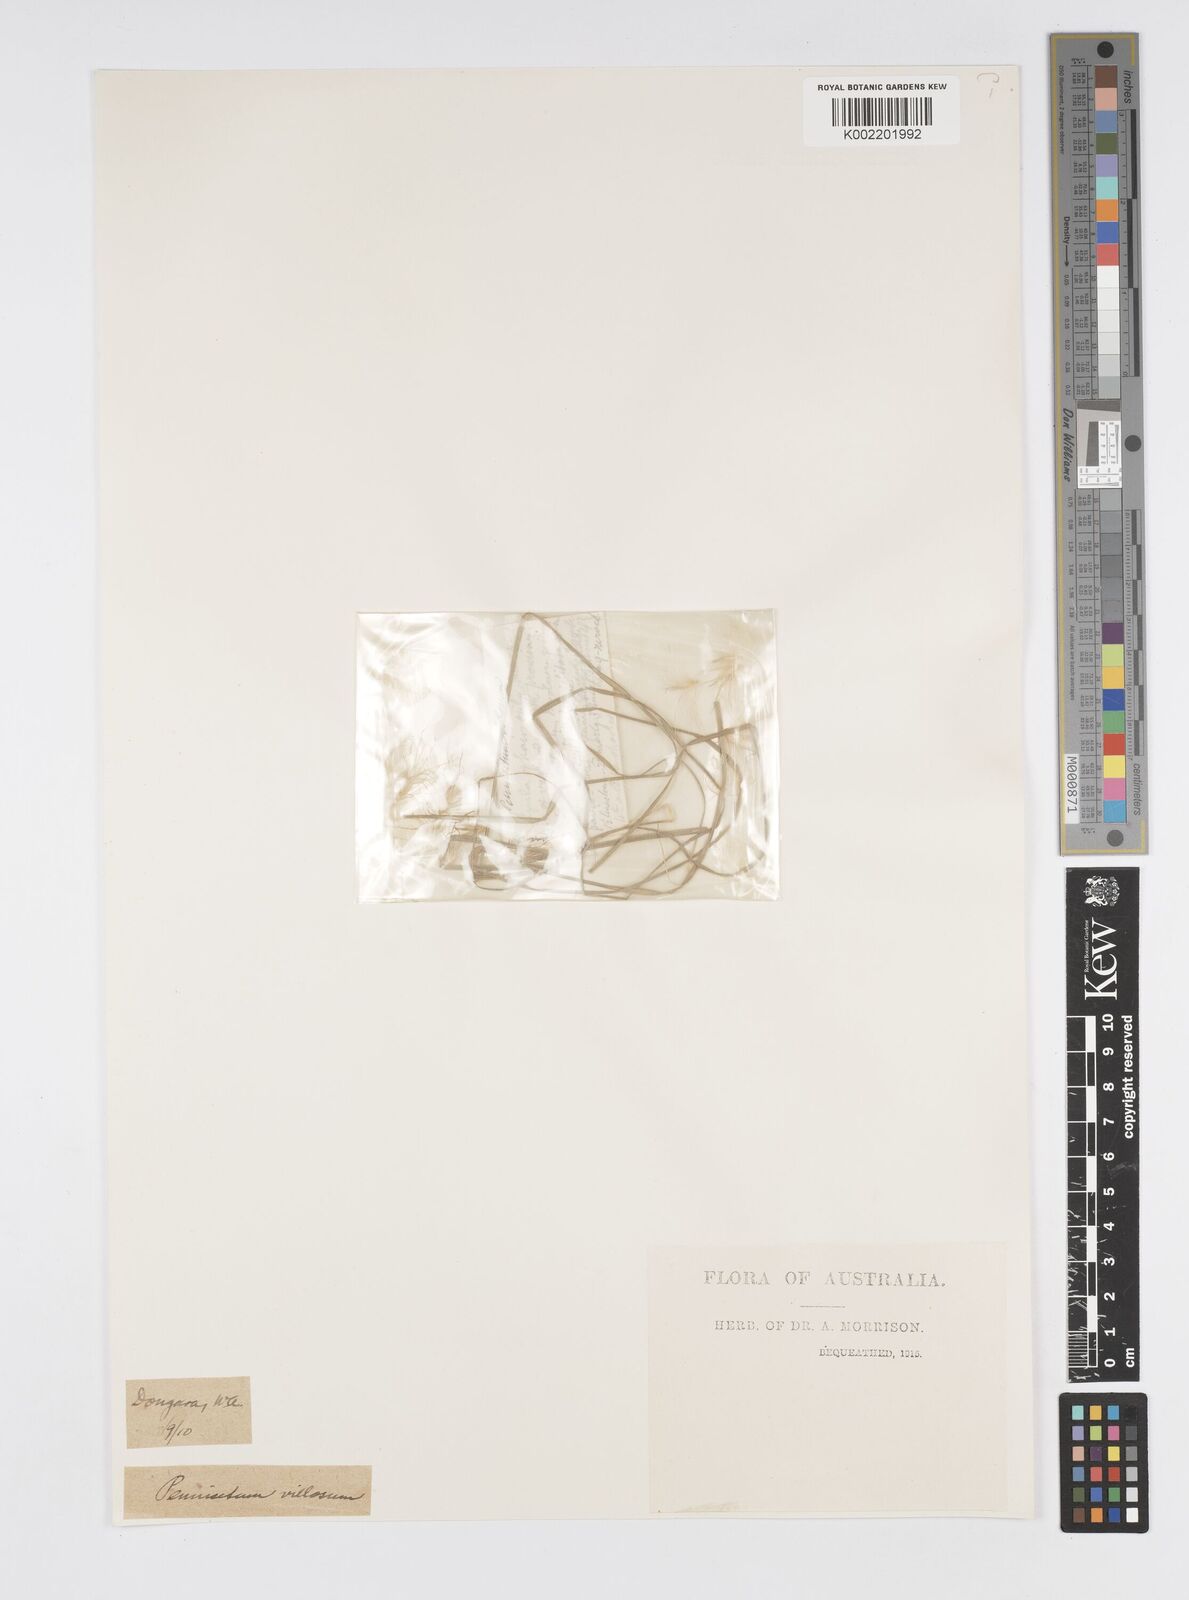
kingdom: Plantae
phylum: Tracheophyta
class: Liliopsida
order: Poales
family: Poaceae
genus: Cenchrus
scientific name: Cenchrus longisetus
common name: Feathertop
